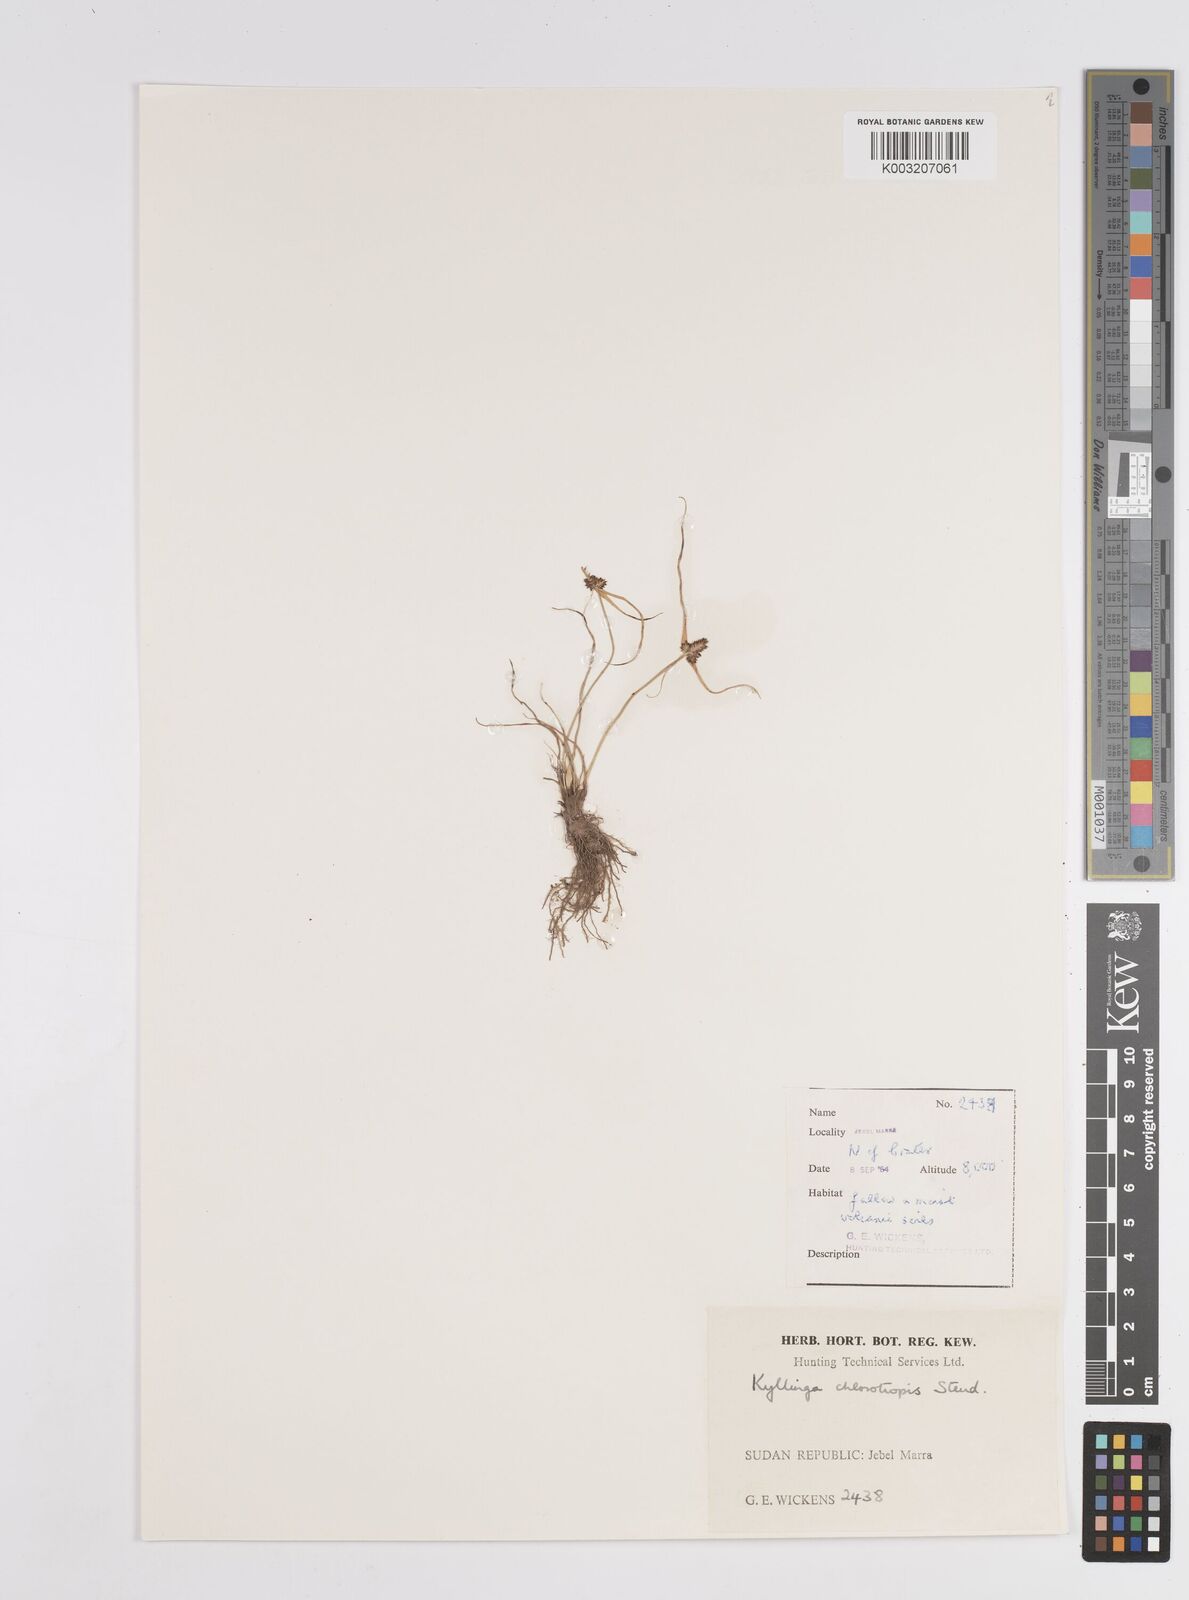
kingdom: Plantae
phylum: Tracheophyta
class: Liliopsida
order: Poales
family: Cyperaceae
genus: Cyperus
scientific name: Cyperus chlorotropis
